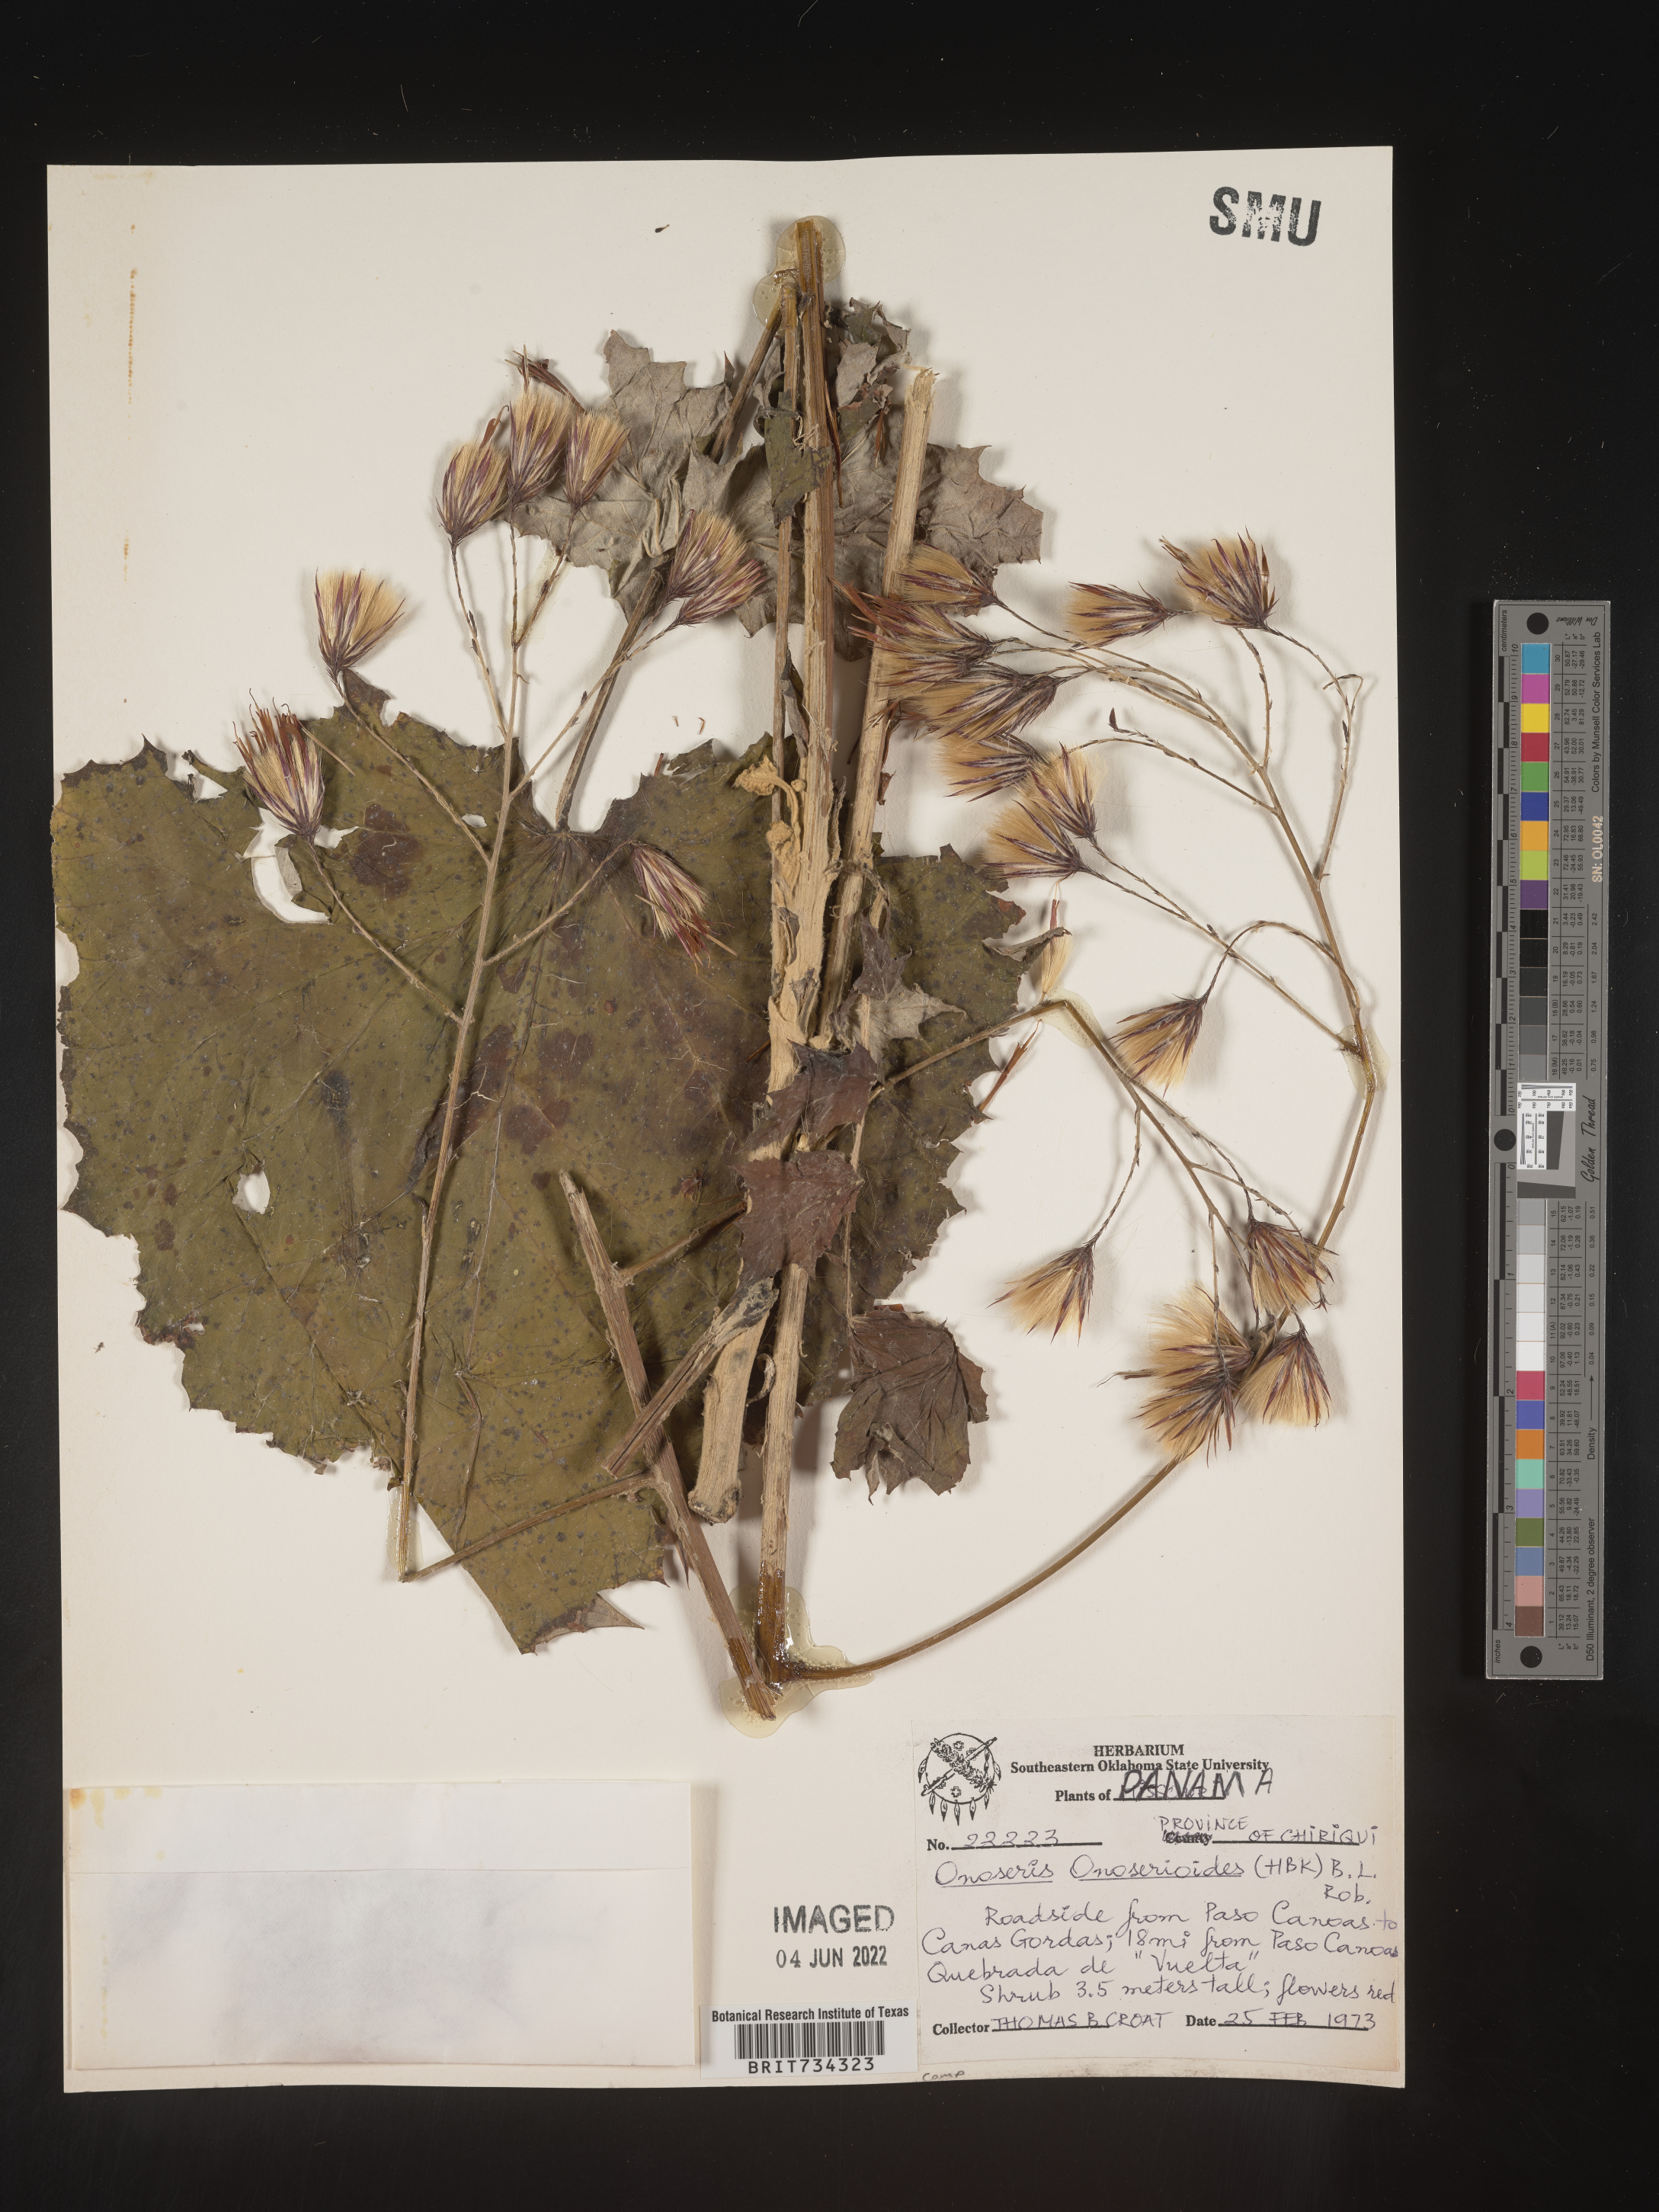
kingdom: Plantae
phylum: Tracheophyta
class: Magnoliopsida
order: Asterales
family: Asteraceae
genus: Onoseris
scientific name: Onoseris
